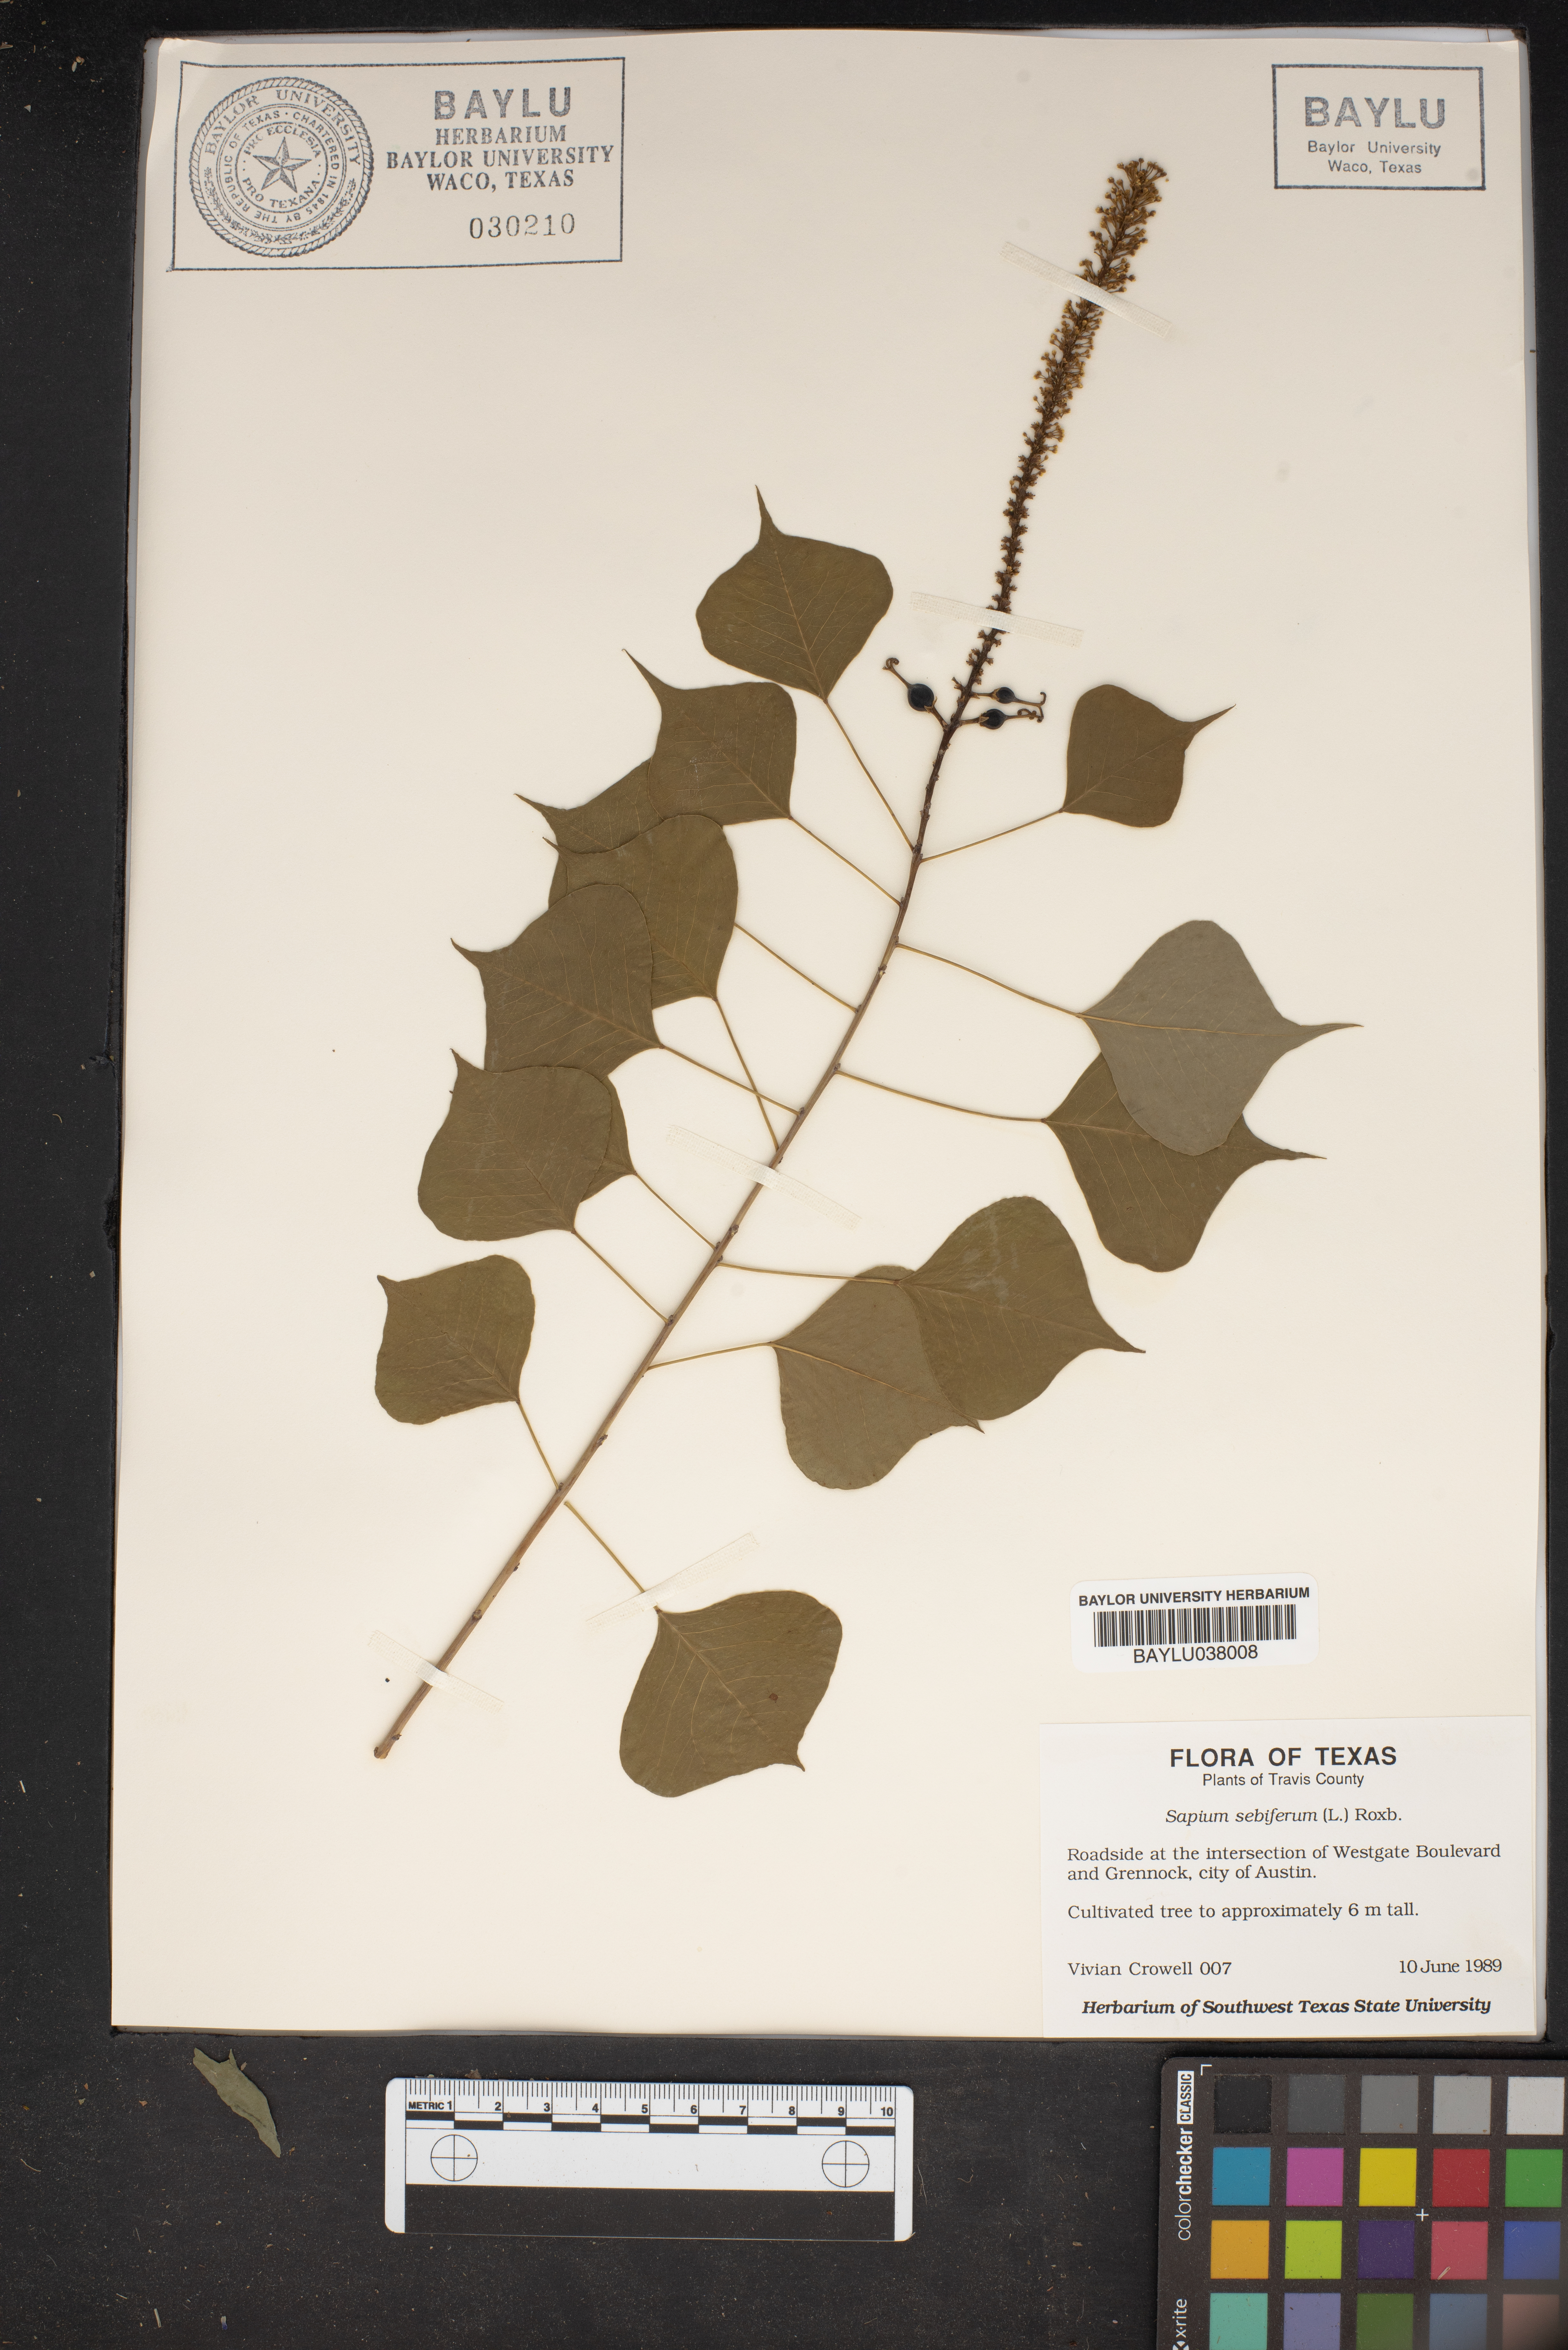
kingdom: Plantae
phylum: Tracheophyta
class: Magnoliopsida
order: Malpighiales
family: Euphorbiaceae
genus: Triadica
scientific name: Triadica sebifera
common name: Chinese tallow
